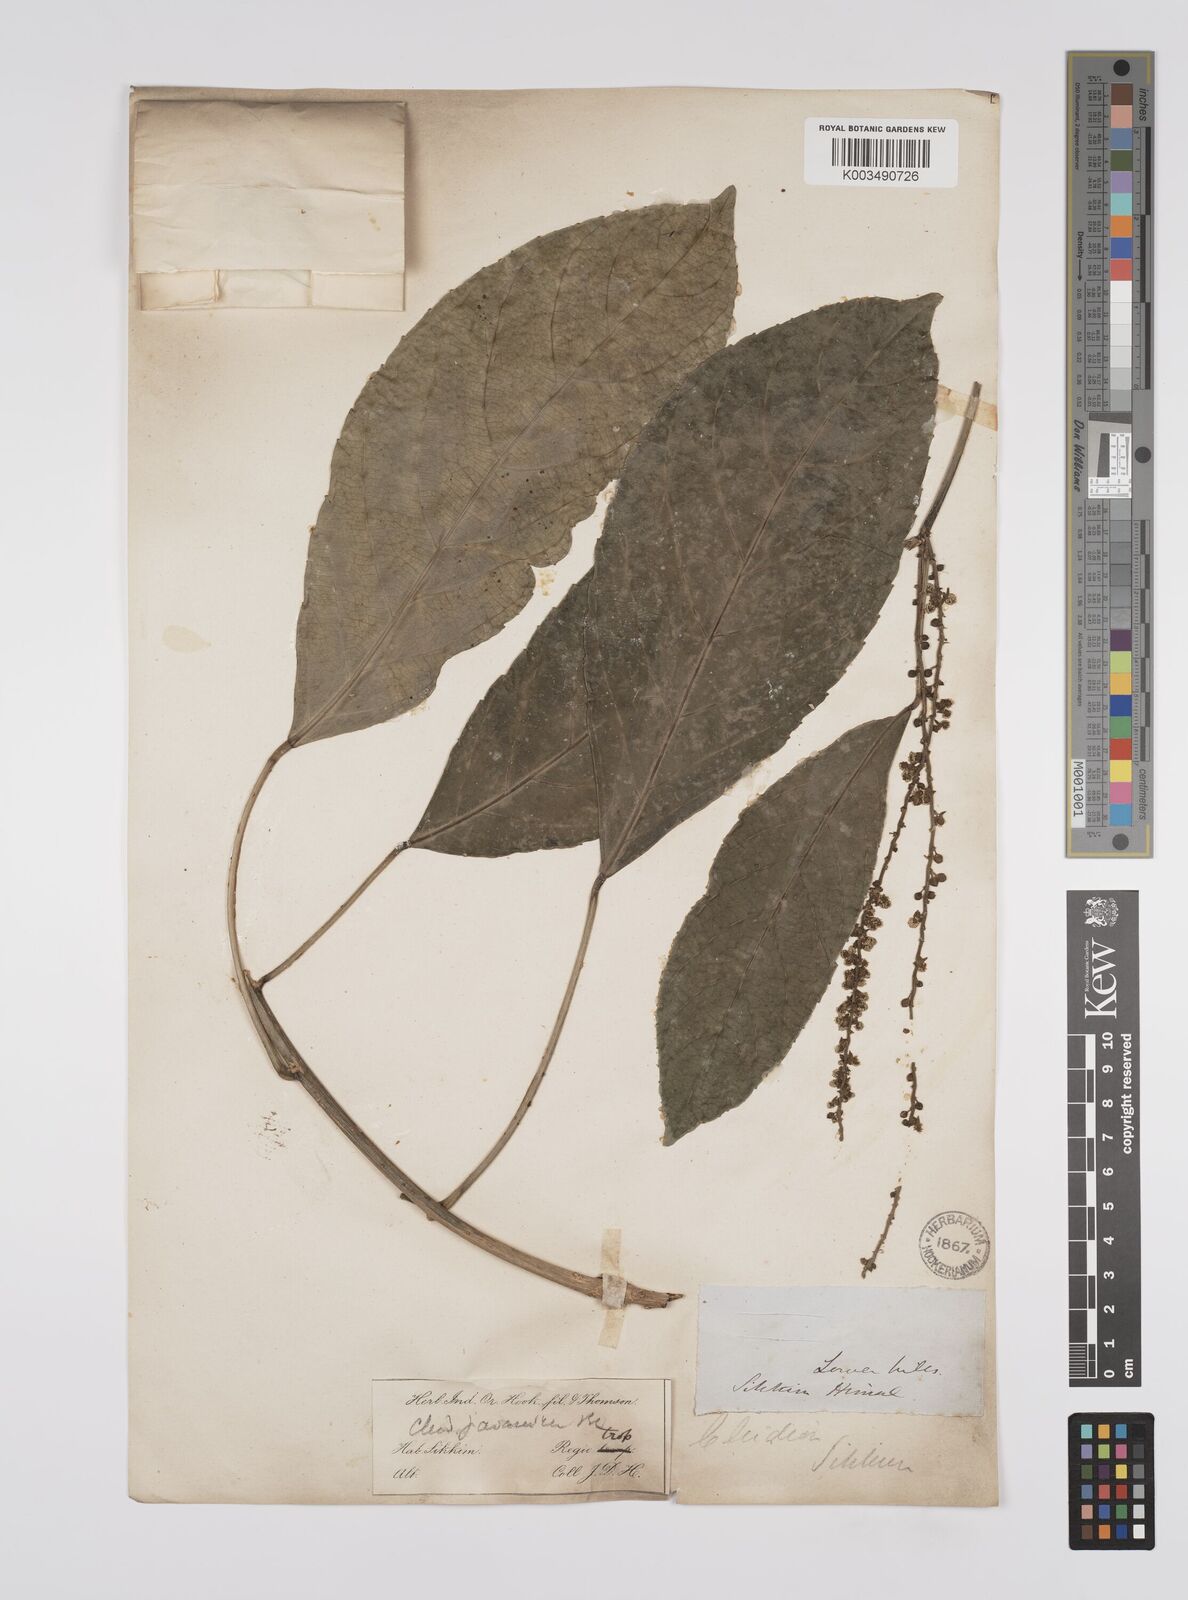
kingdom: Plantae
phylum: Tracheophyta
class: Magnoliopsida
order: Malpighiales
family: Euphorbiaceae
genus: Acalypha
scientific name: Acalypha spiciflora
